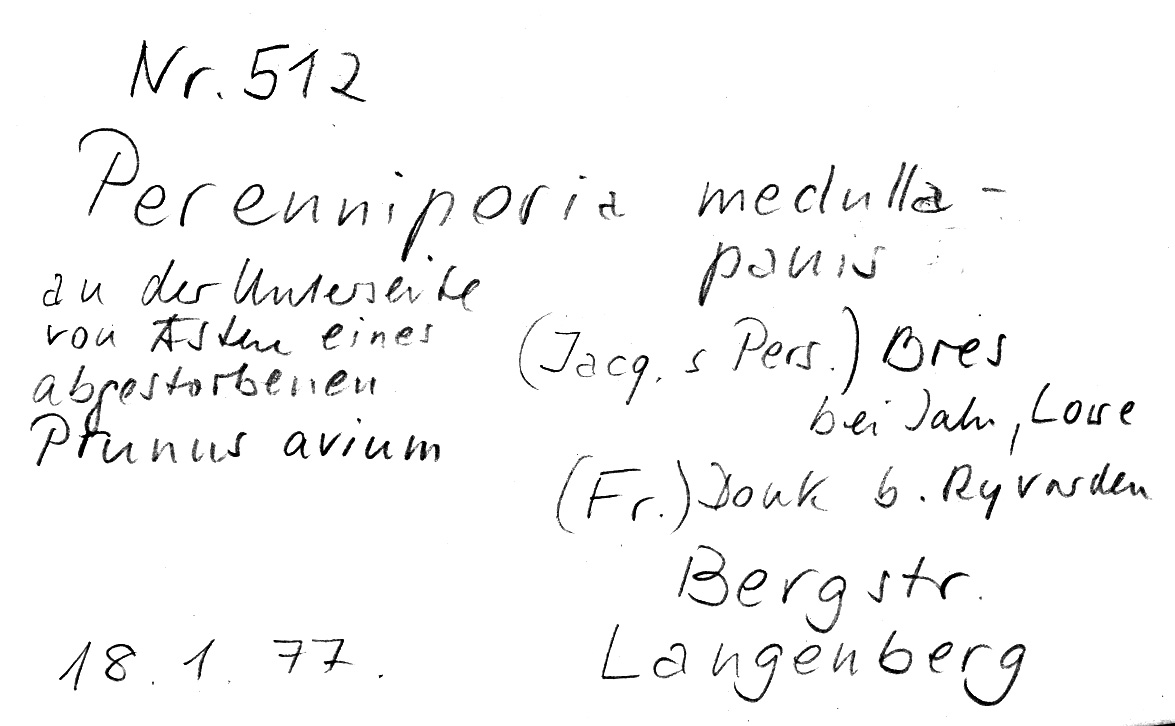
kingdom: Plantae
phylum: Tracheophyta
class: Magnoliopsida
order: Rosales
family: Rosaceae
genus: Prunus
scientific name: Prunus avium
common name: Sweet cherry
